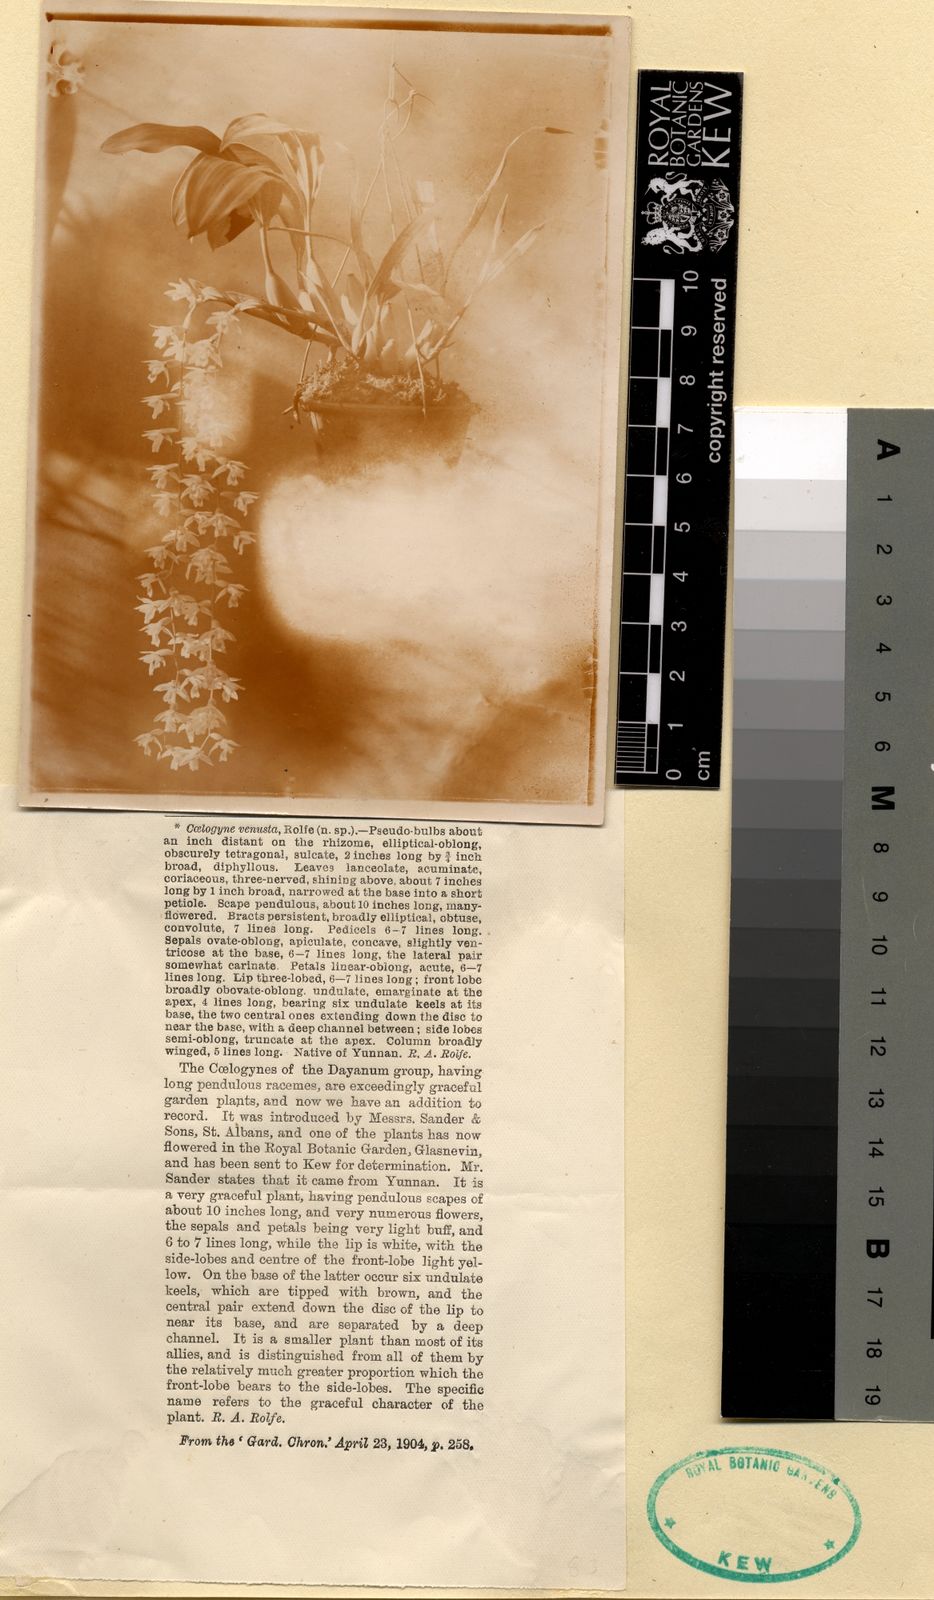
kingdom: Plantae
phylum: Tracheophyta
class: Liliopsida
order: Asparagales
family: Orchidaceae
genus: Coelogyne
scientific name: Coelogyne venusta
